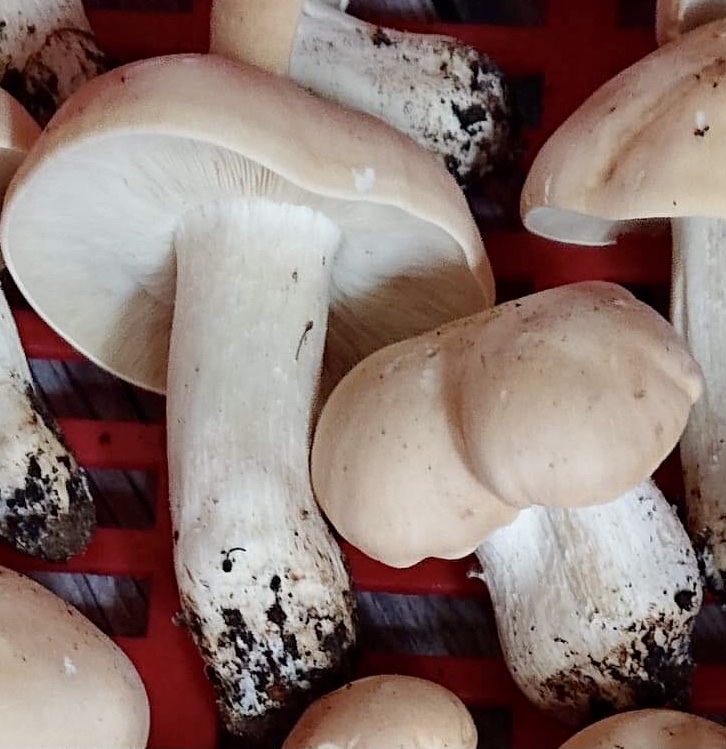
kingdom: Fungi
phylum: Basidiomycota
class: Agaricomycetes
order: Agaricales
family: Lyophyllaceae
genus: Calocybe
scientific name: Calocybe gambosa
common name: vårmusseron
